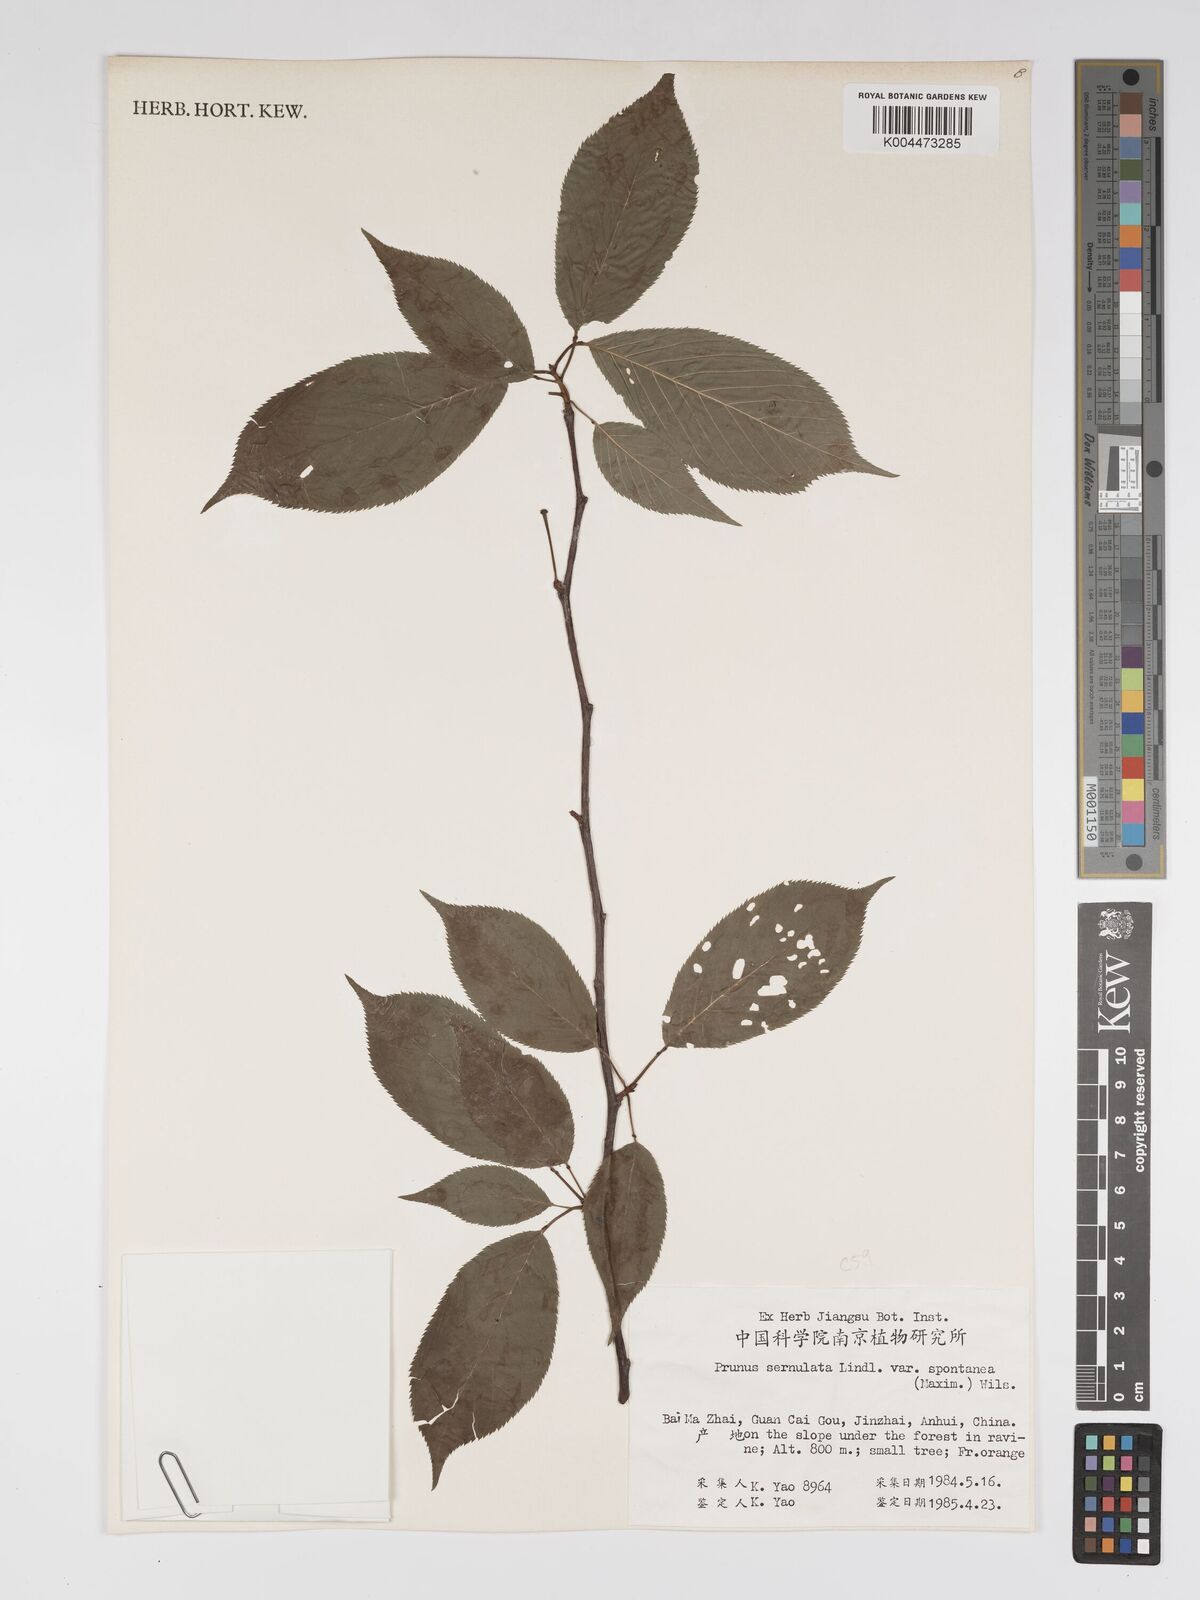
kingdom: Plantae
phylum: Tracheophyta
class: Magnoliopsida
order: Rosales
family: Rosaceae
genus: Prunus
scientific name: Prunus serrulata
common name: Japanese cherry
